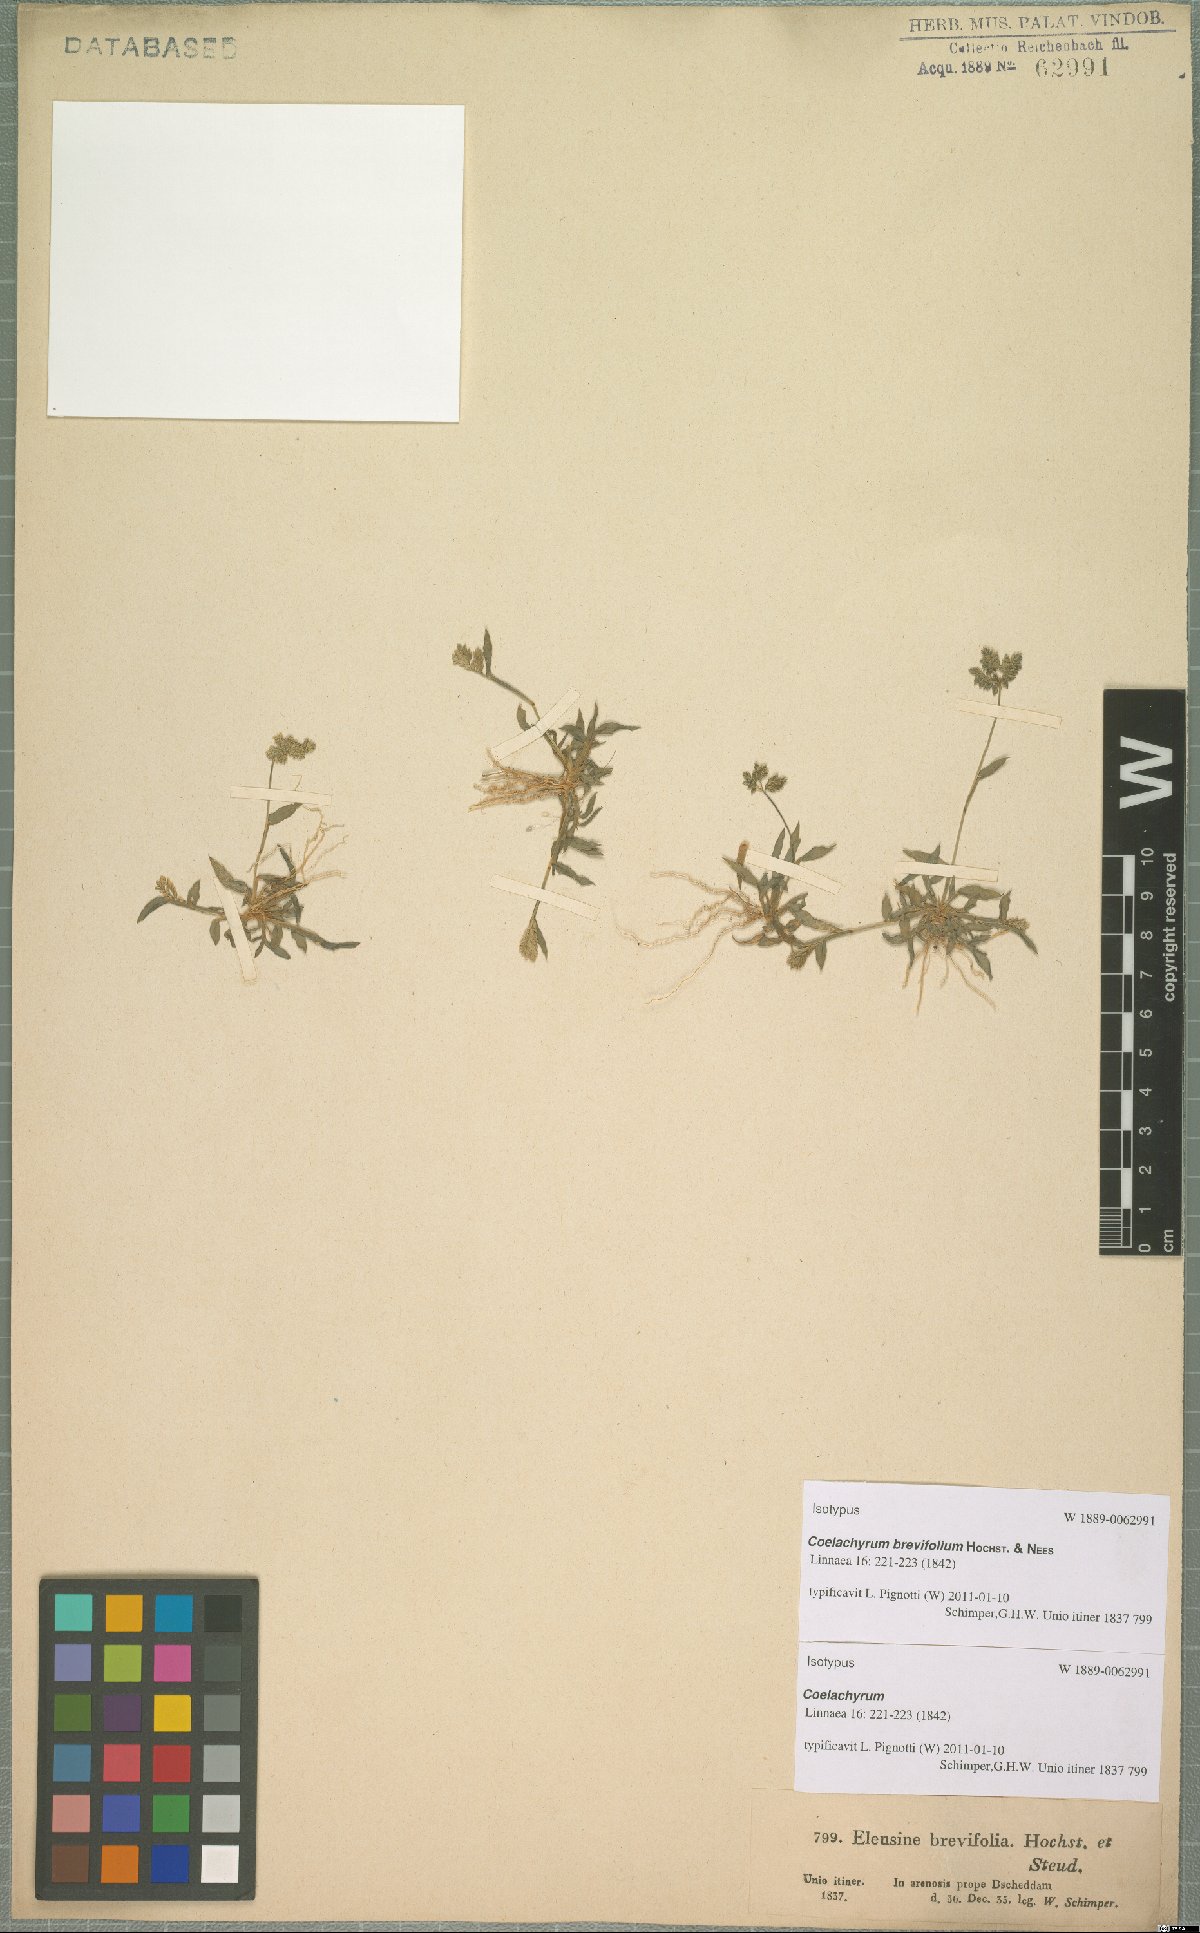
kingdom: Plantae
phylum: Tracheophyta
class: Liliopsida
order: Poales
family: Poaceae
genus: Coelachyrum
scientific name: Coelachyrum brevifolium
